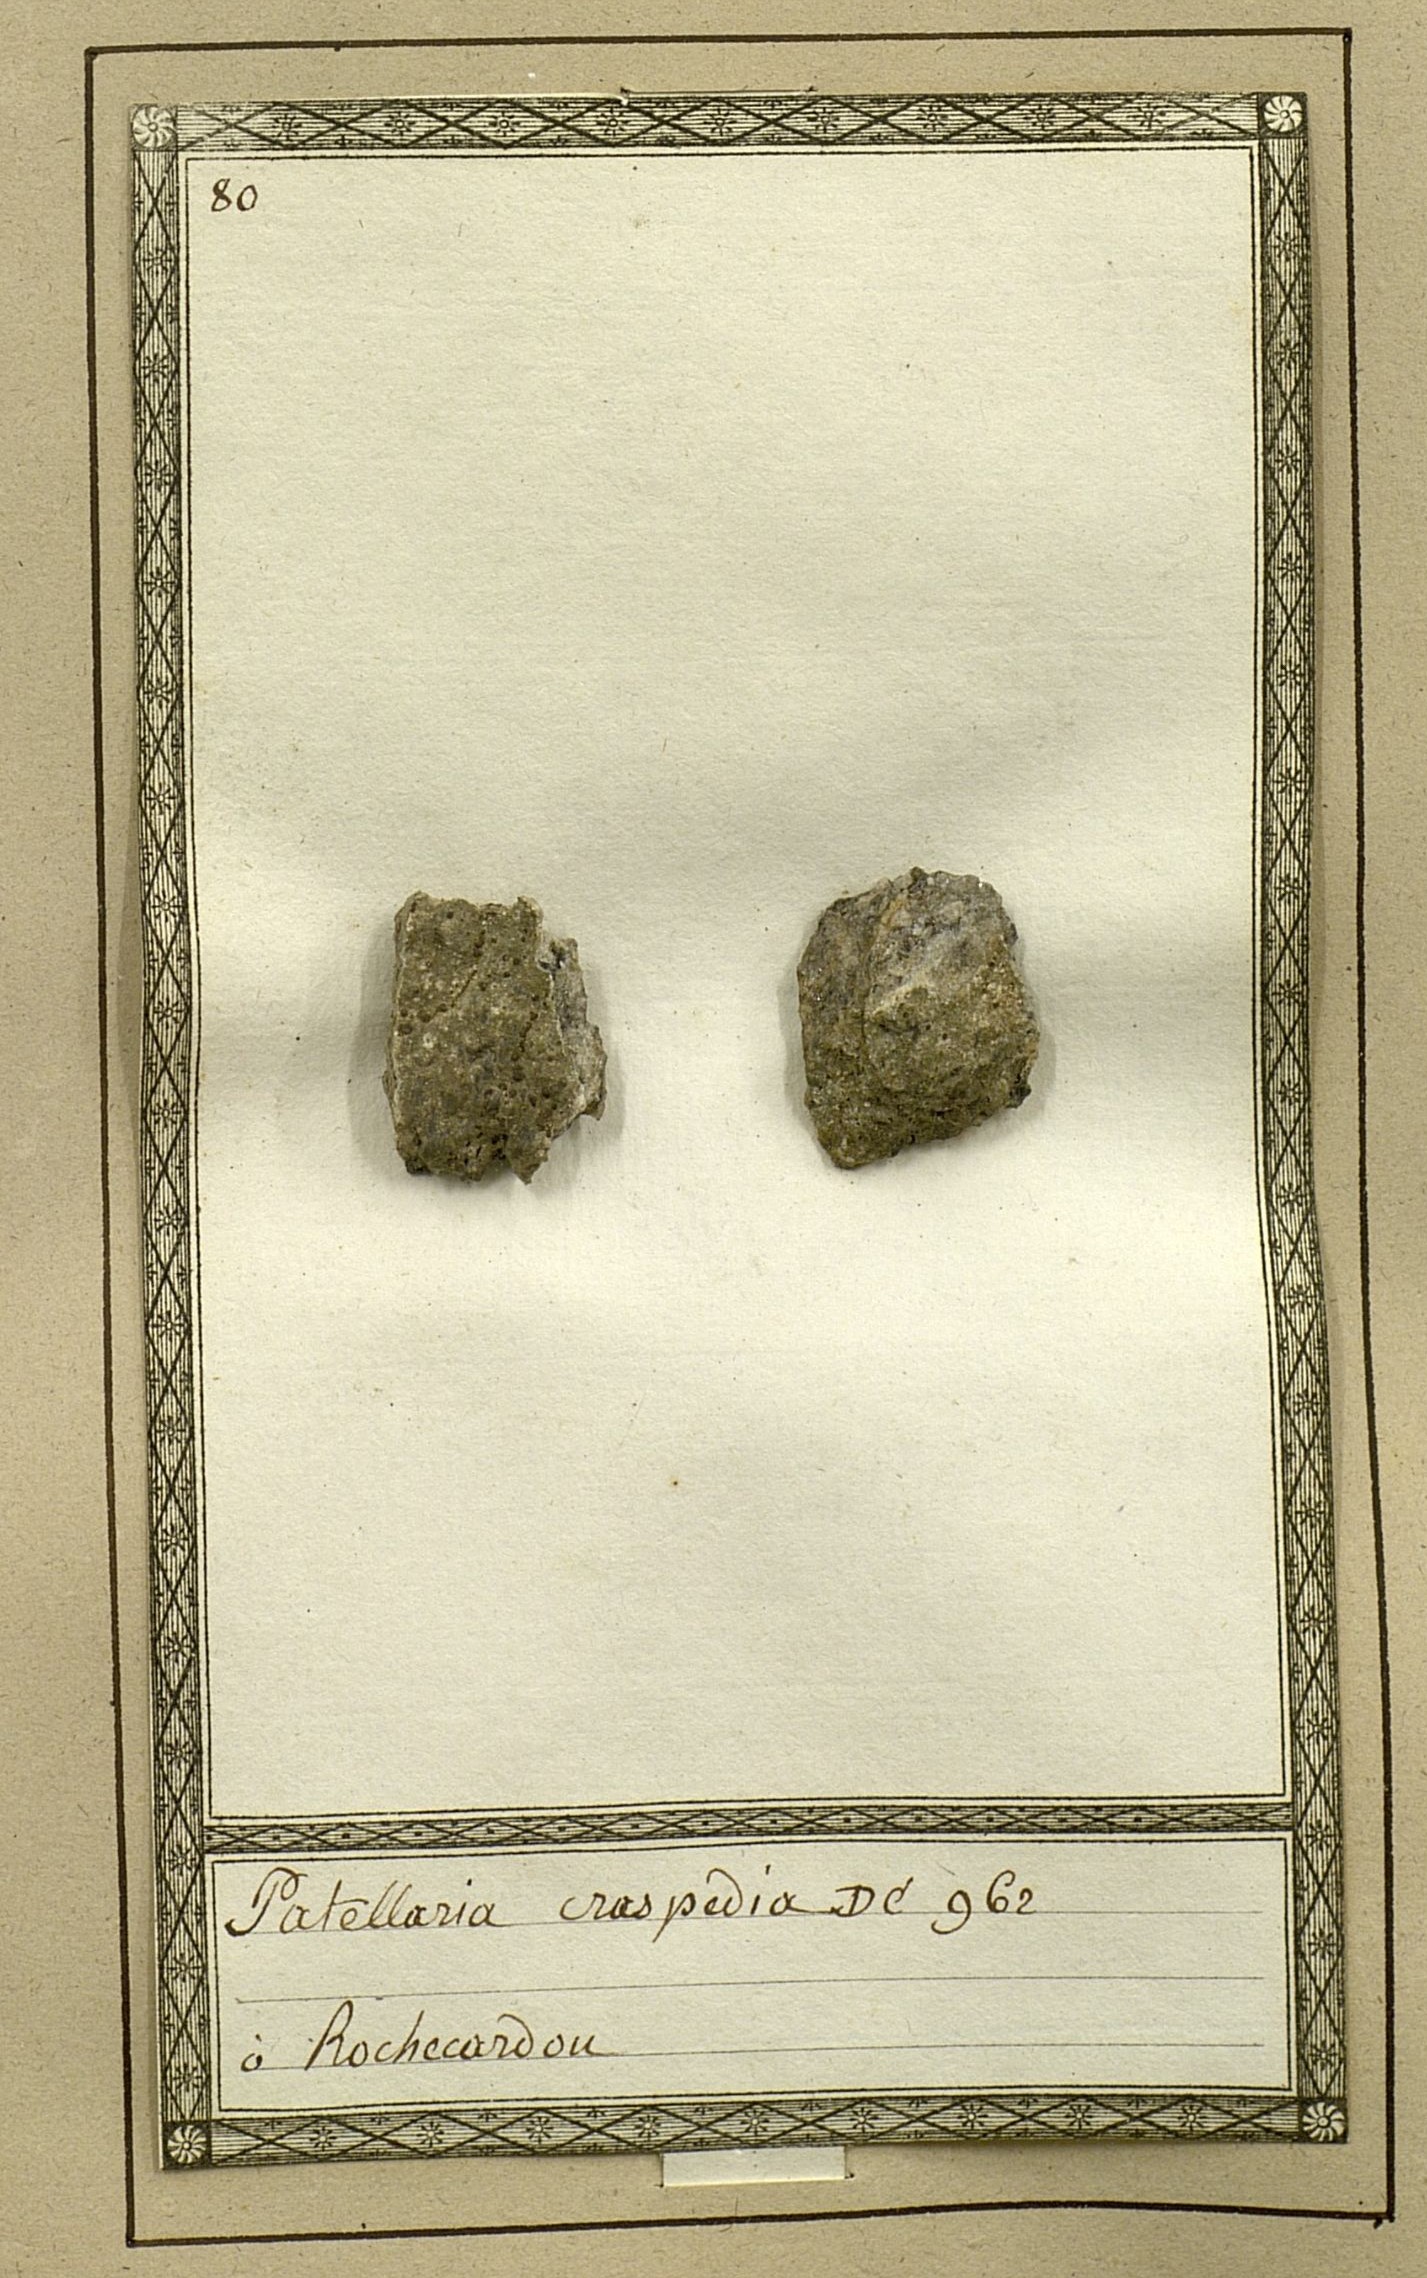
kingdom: Fungi
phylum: Ascomycota
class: Lecanoromycetes
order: Teloschistales
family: Teloschistaceae
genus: Rufoplaca
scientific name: Rufoplaca arenaria
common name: Granite firedot lichen
